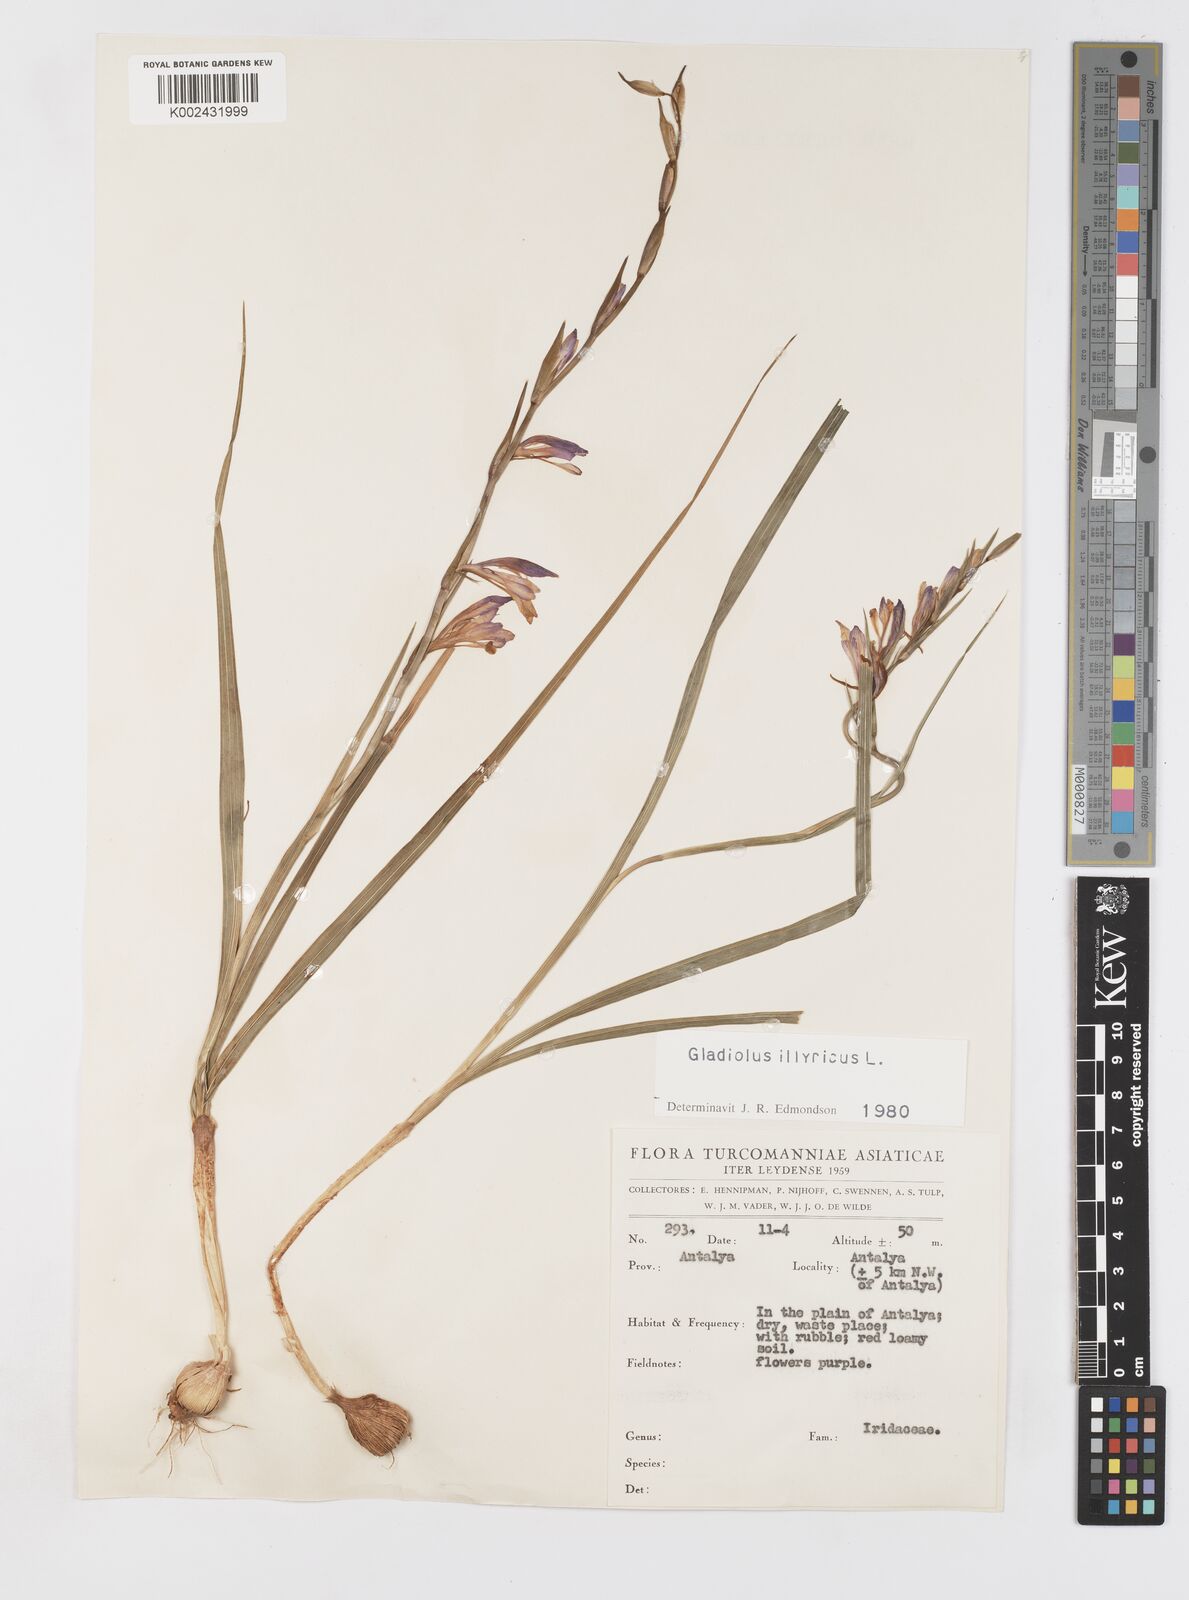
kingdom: Plantae
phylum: Tracheophyta
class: Liliopsida
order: Asparagales
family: Iridaceae
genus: Gladiolus
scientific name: Gladiolus illyricus
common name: Wild gladiolus
